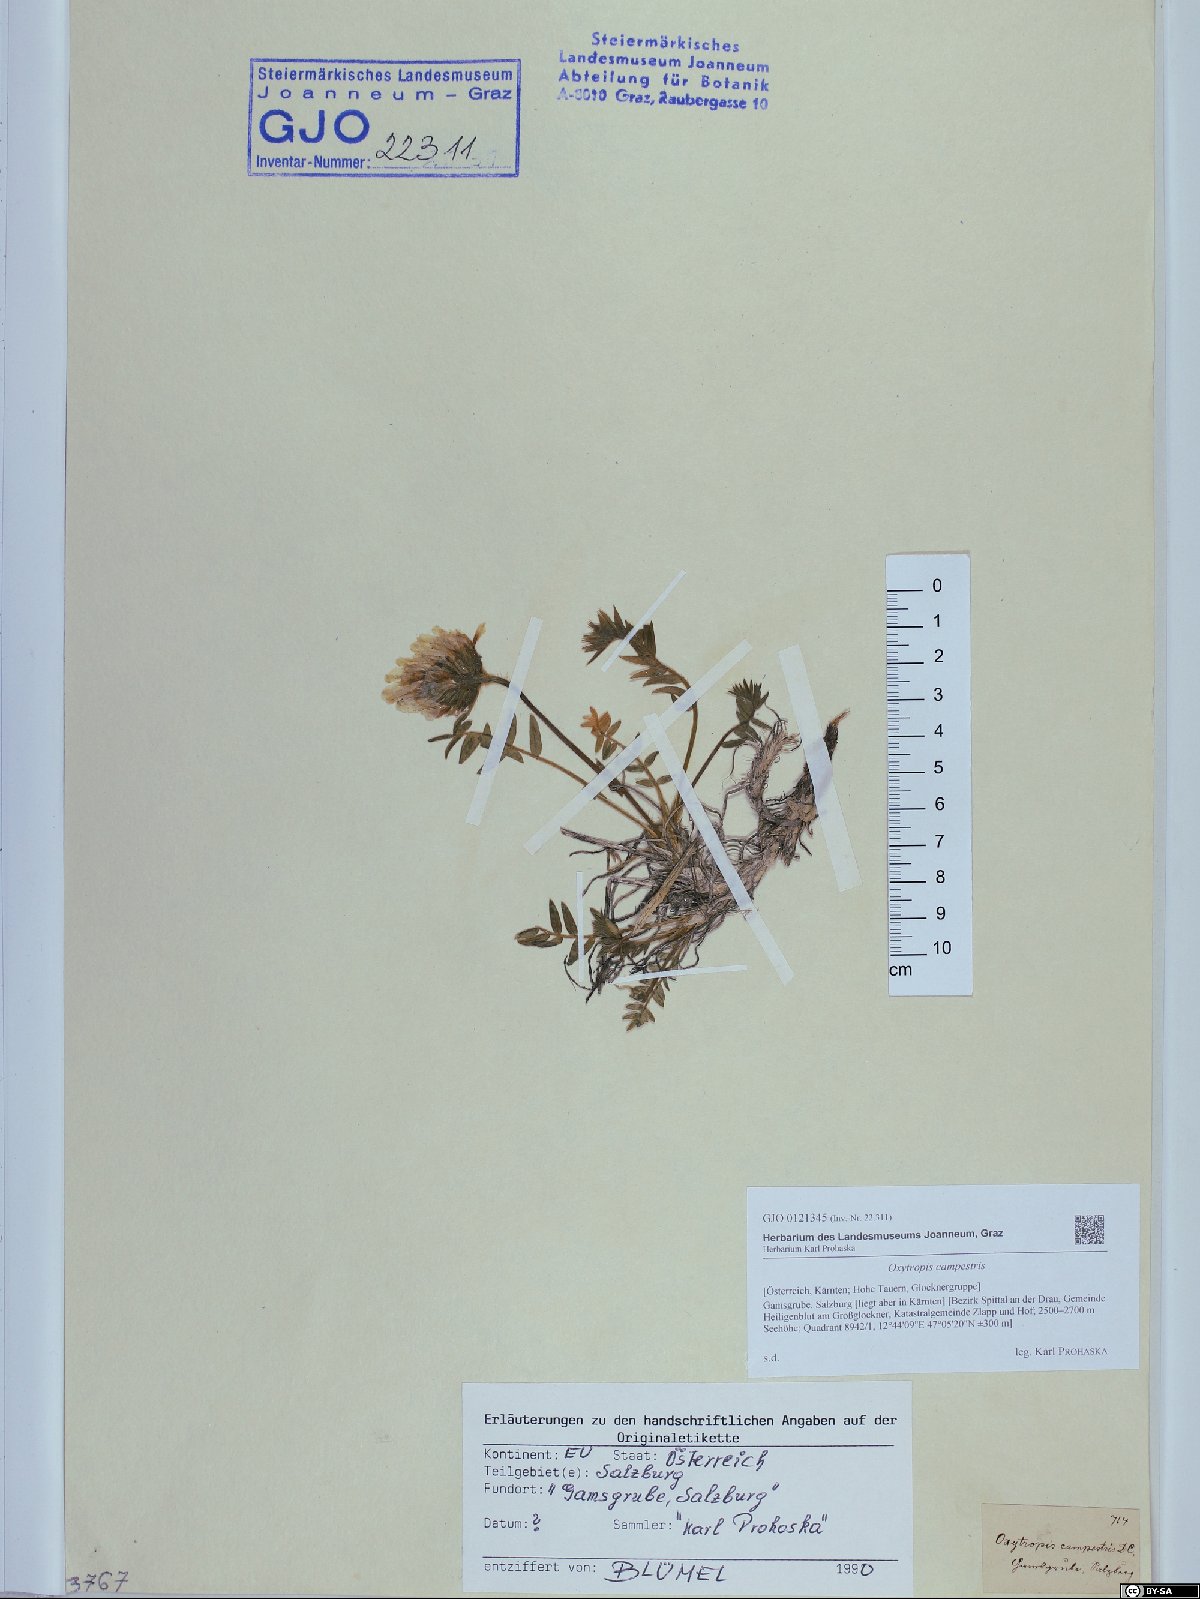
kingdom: Plantae
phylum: Tracheophyta
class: Magnoliopsida
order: Fabales
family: Fabaceae
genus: Oxytropis
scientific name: Oxytropis campestris
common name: Field locoweed
